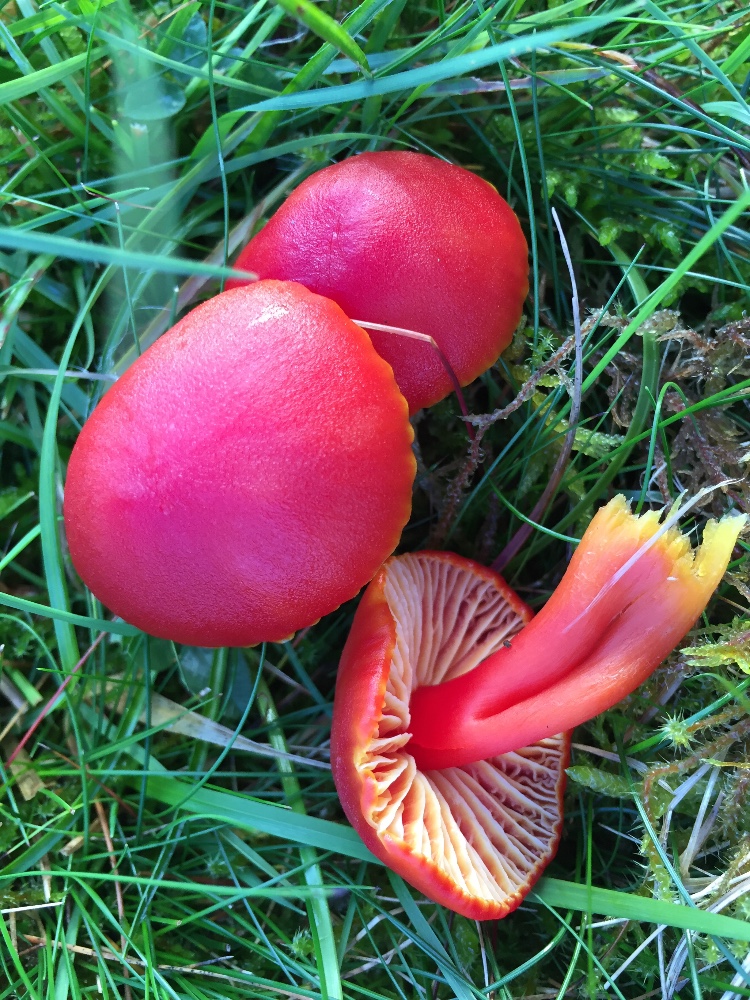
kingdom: Fungi
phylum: Basidiomycota
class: Agaricomycetes
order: Agaricales
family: Hygrophoraceae
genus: Hygrocybe
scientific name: Hygrocybe coccinea
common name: cinnober-vokshat
